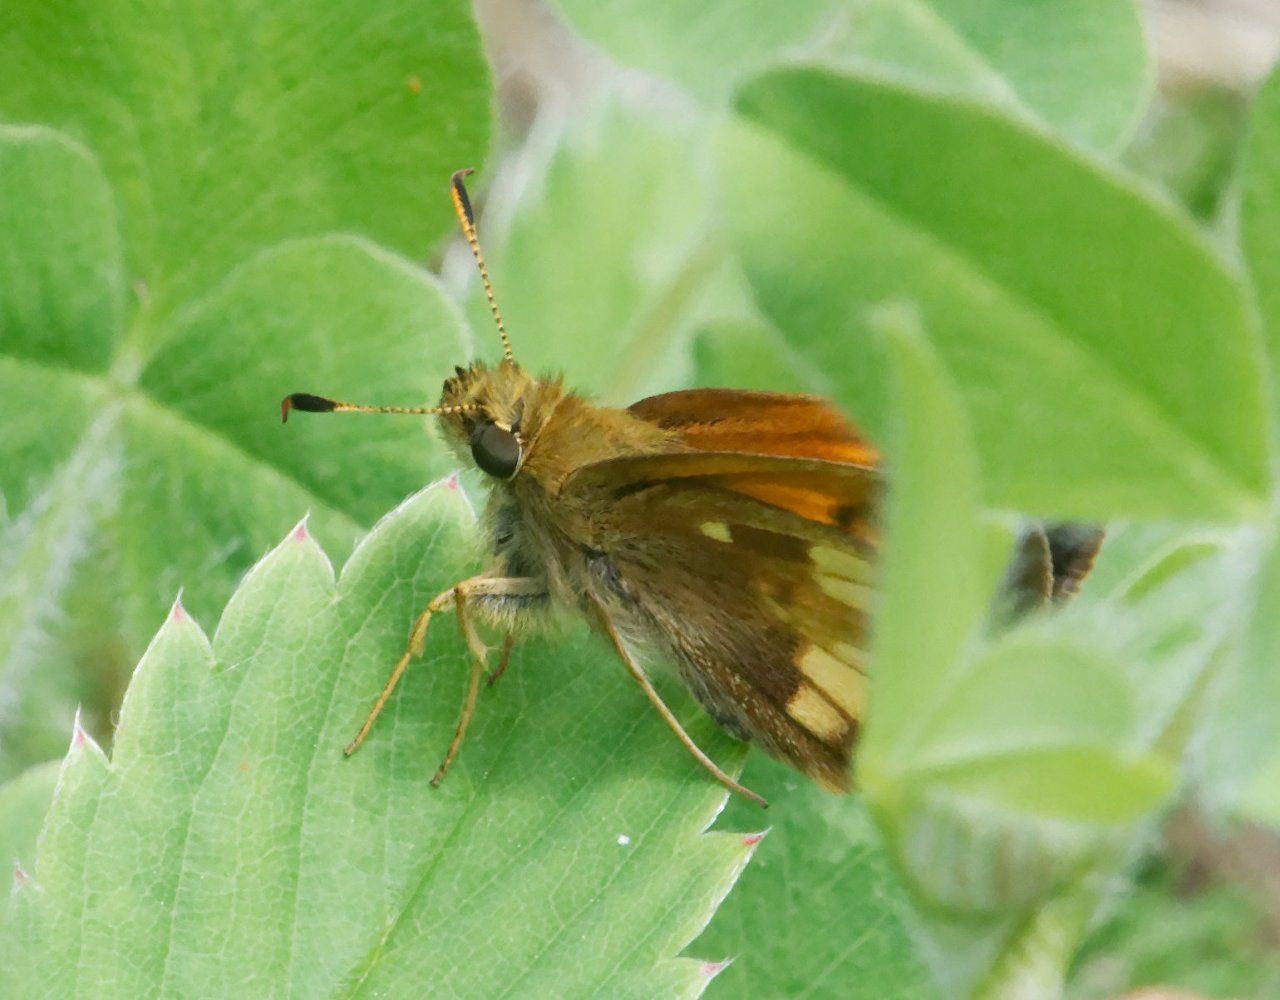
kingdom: Animalia
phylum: Arthropoda
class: Insecta
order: Lepidoptera
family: Hesperiidae
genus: Lon
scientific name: Lon hobomok
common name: Hobomok Skipper
